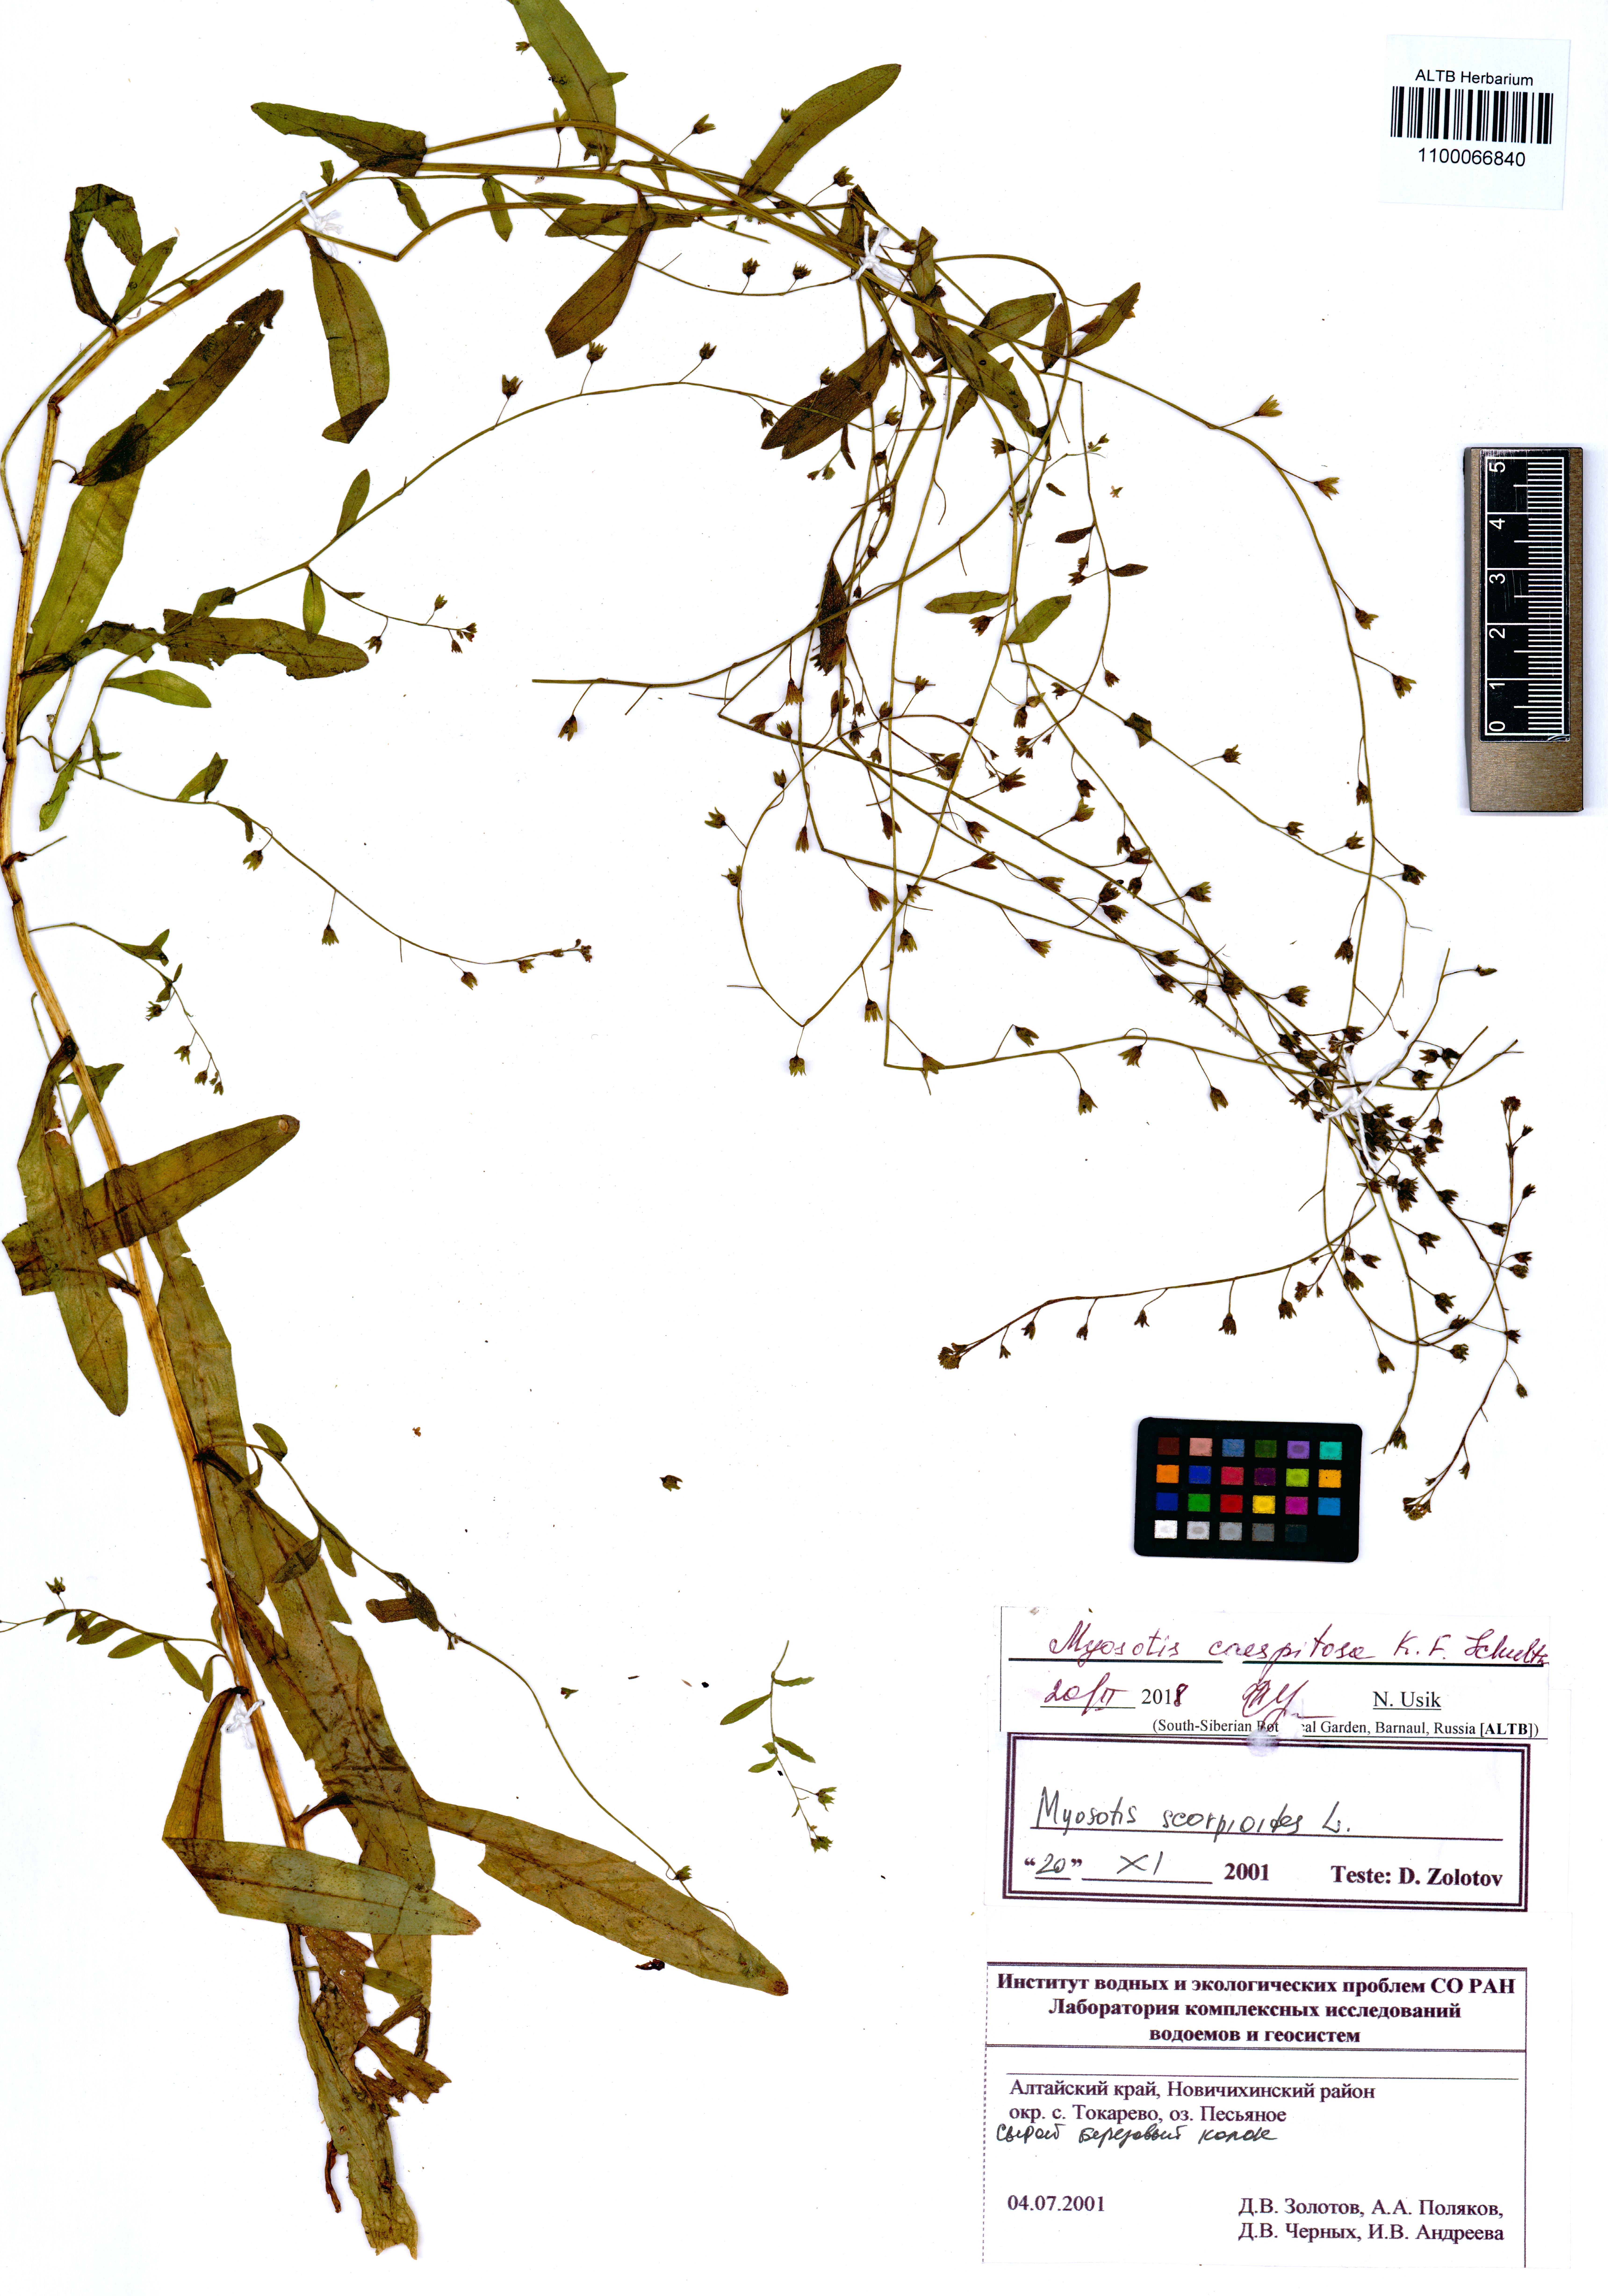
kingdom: Plantae
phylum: Tracheophyta
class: Magnoliopsida
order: Boraginales
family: Boraginaceae
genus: Myosotis
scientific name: Myosotis laxa
